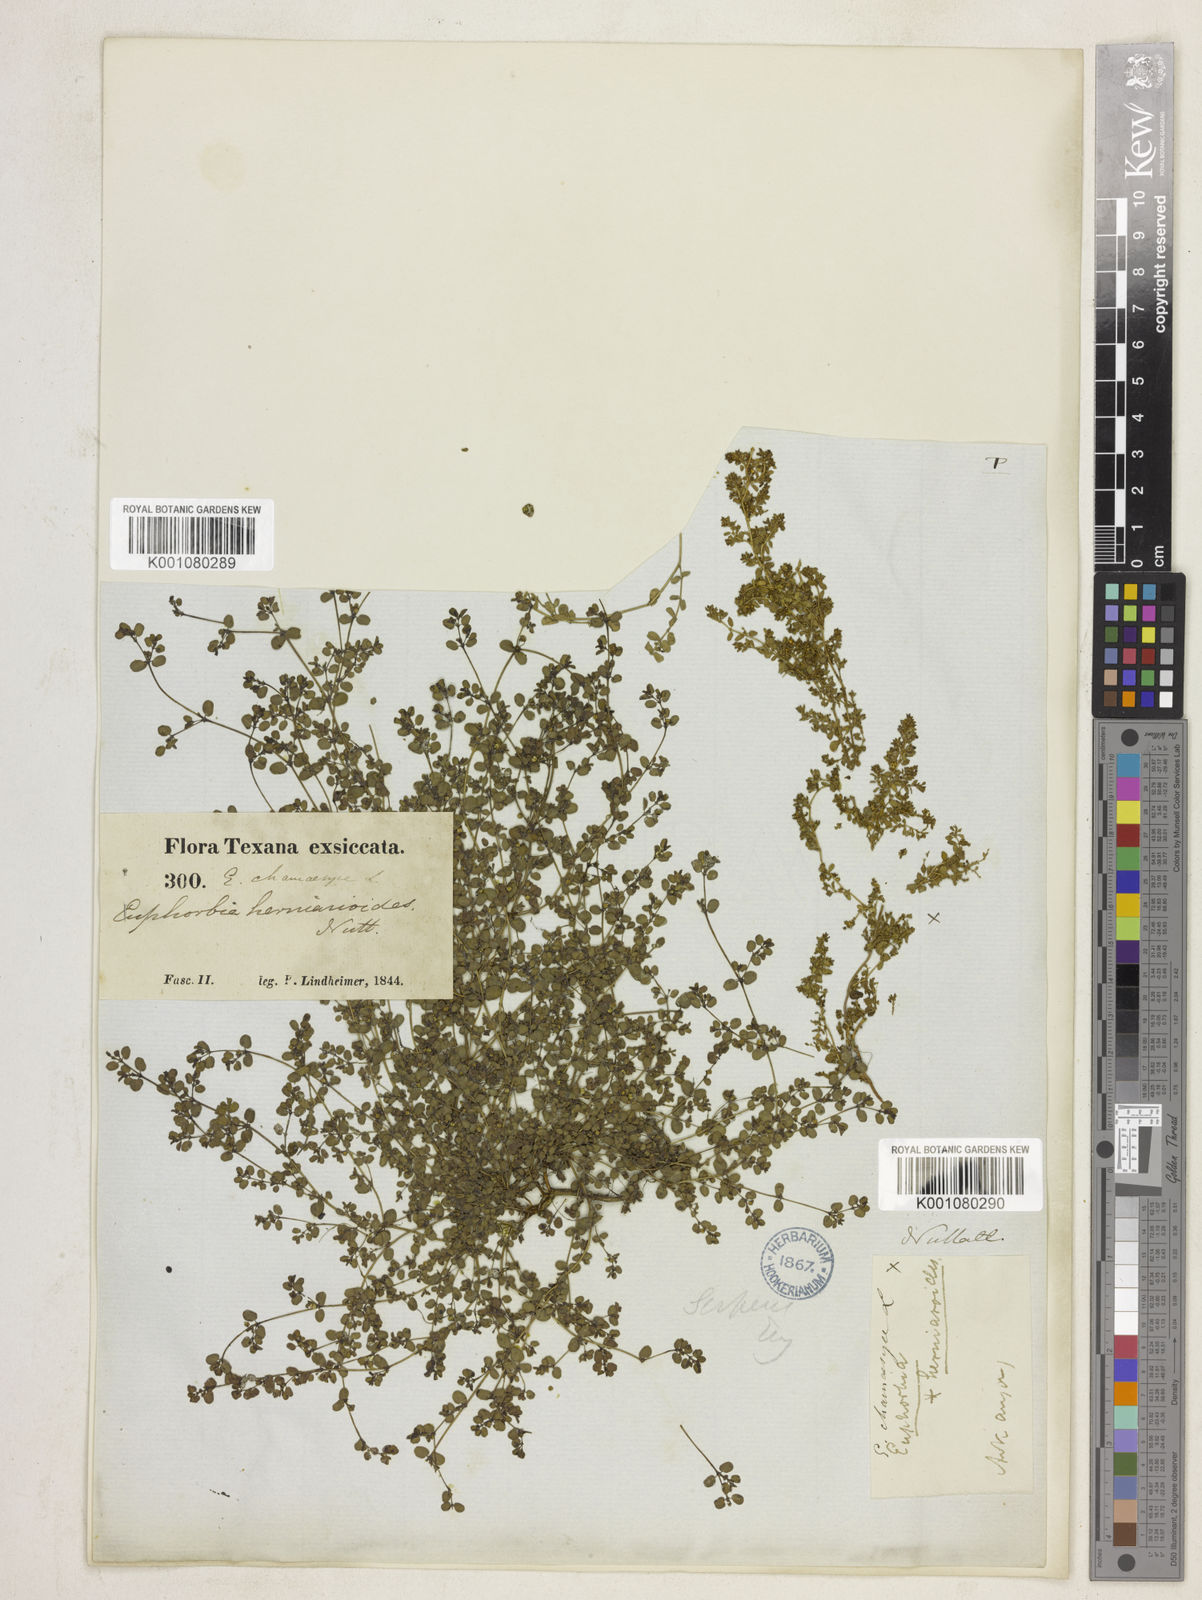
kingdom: Plantae
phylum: Tracheophyta
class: Magnoliopsida
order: Malpighiales
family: Euphorbiaceae
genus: Euphorbia
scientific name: Euphorbia
